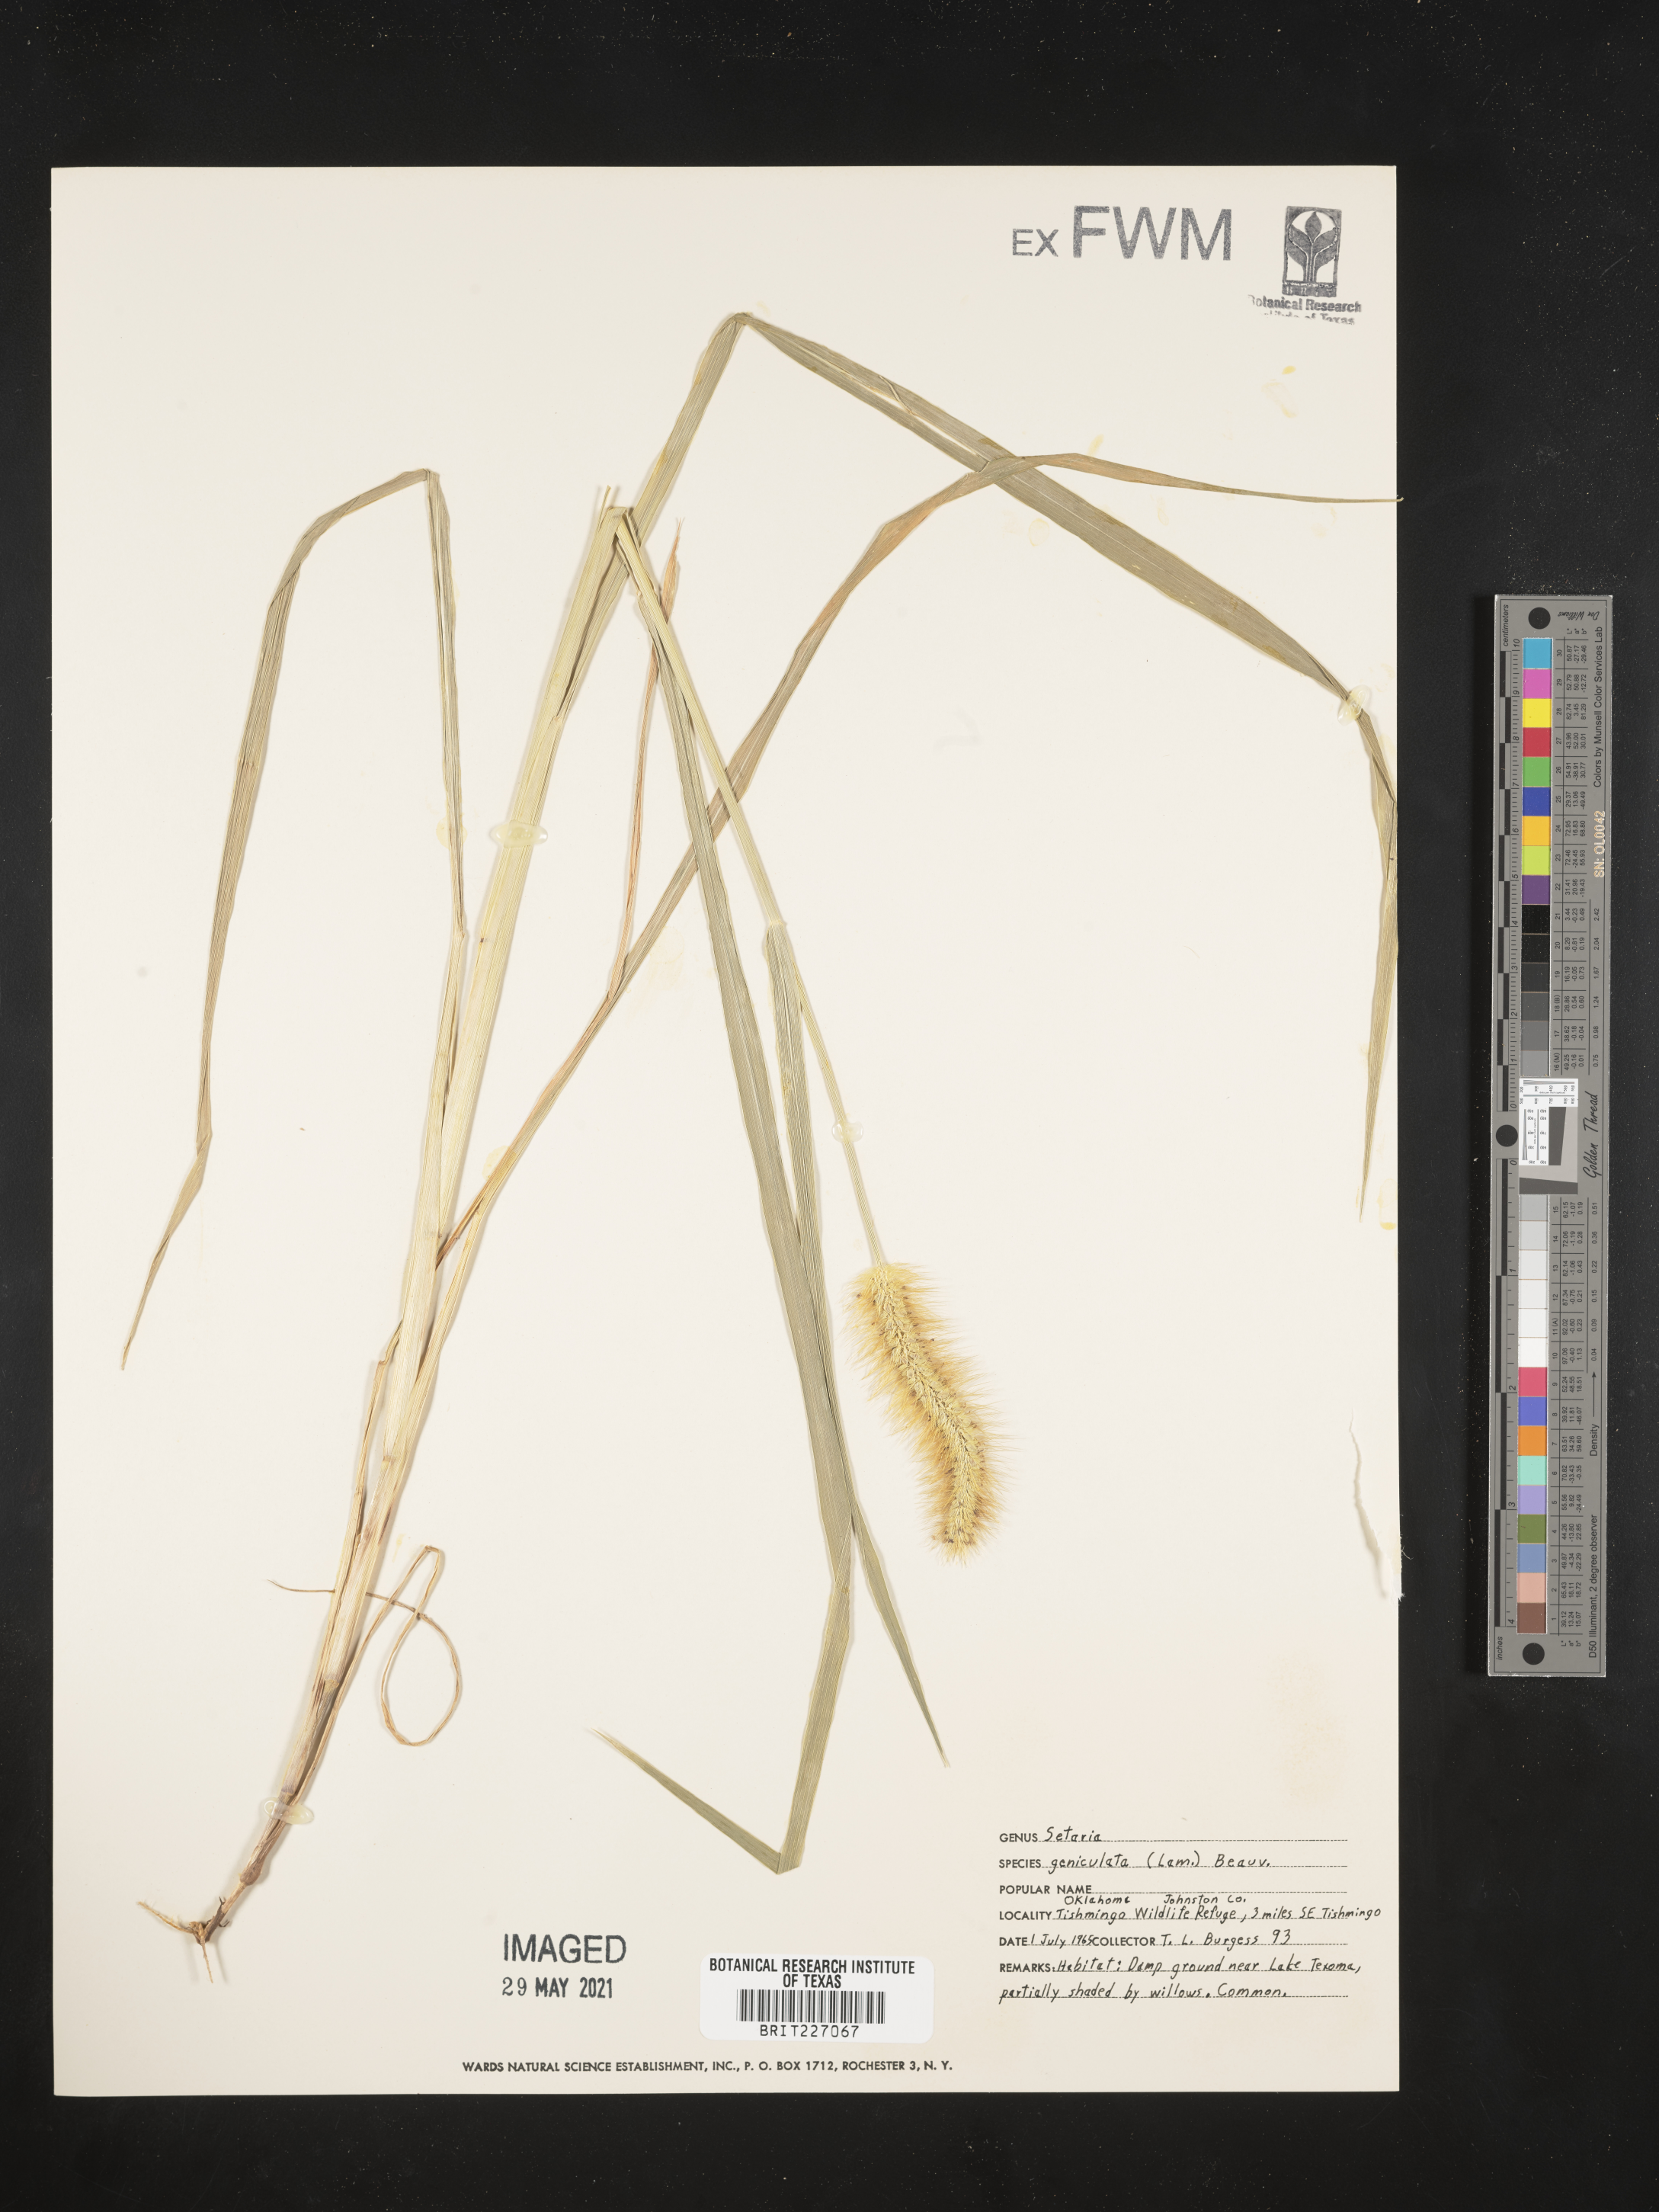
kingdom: Plantae
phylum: Tracheophyta
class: Liliopsida
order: Poales
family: Poaceae
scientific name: Poaceae
